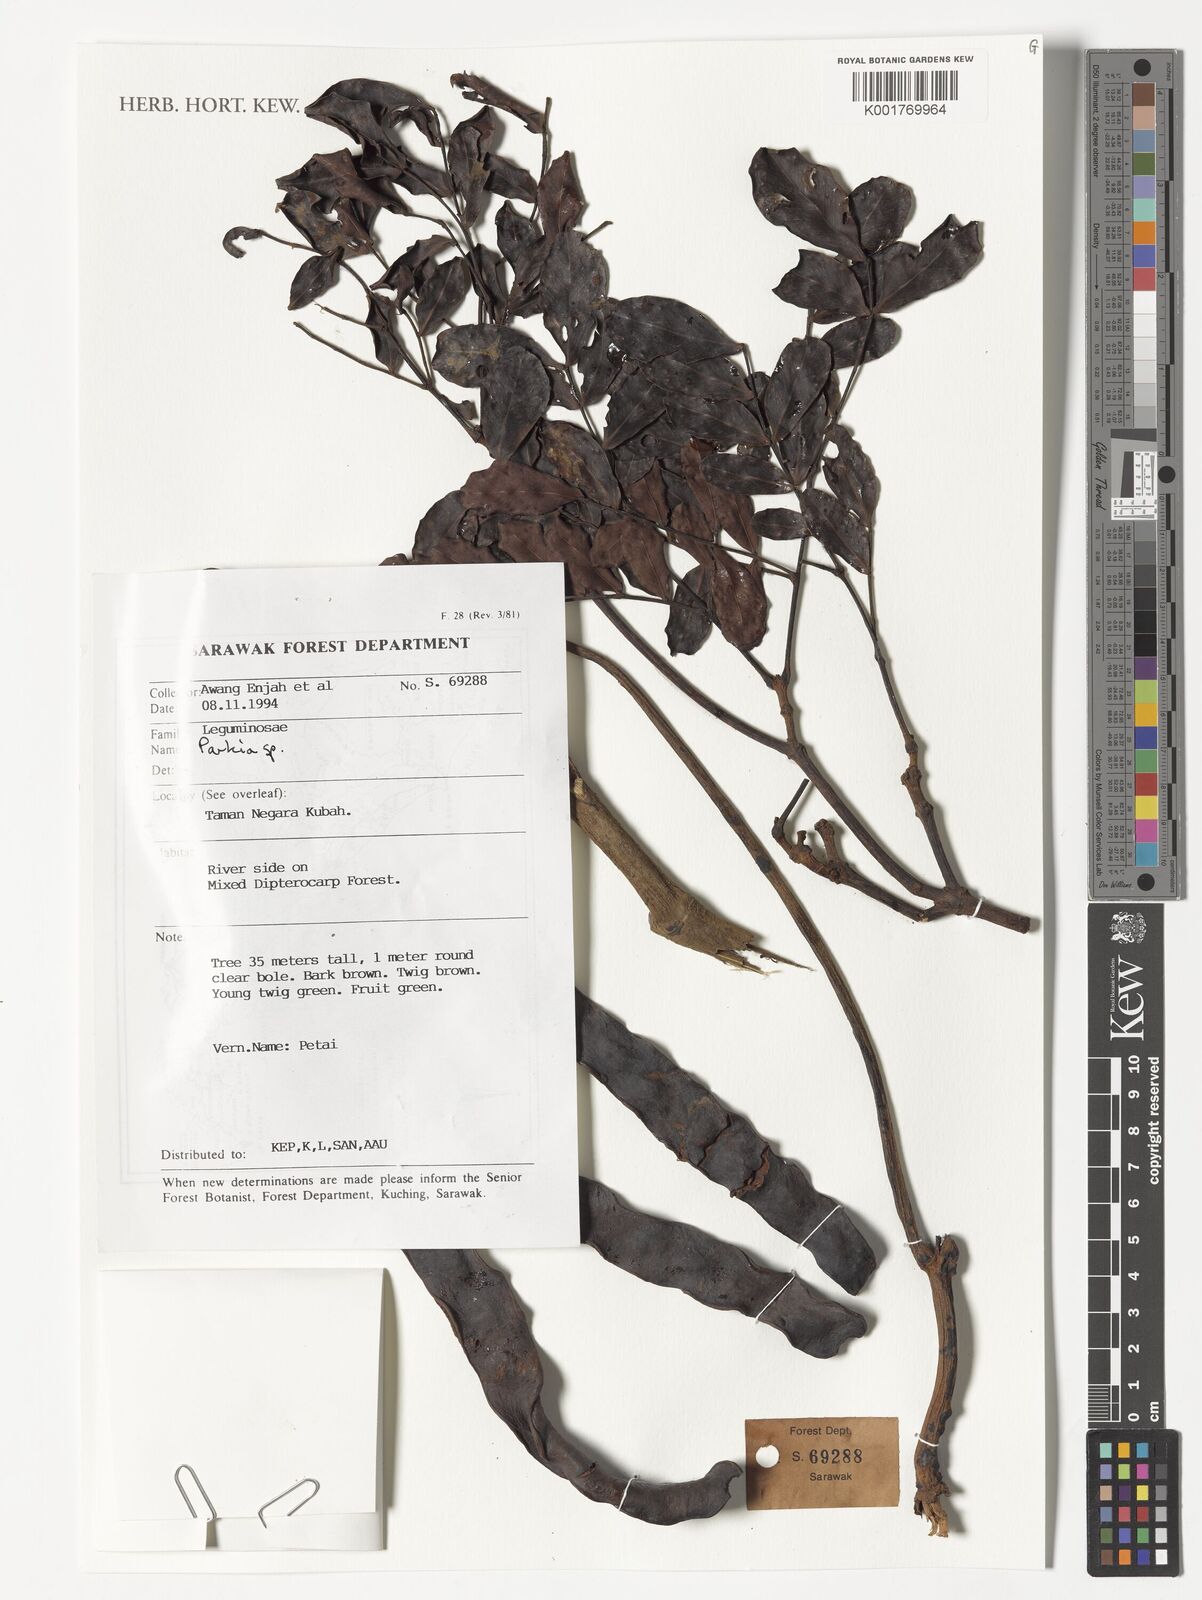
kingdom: Plantae
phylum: Tracheophyta
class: Magnoliopsida
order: Fabales
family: Fabaceae
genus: Parkia
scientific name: Parkia
